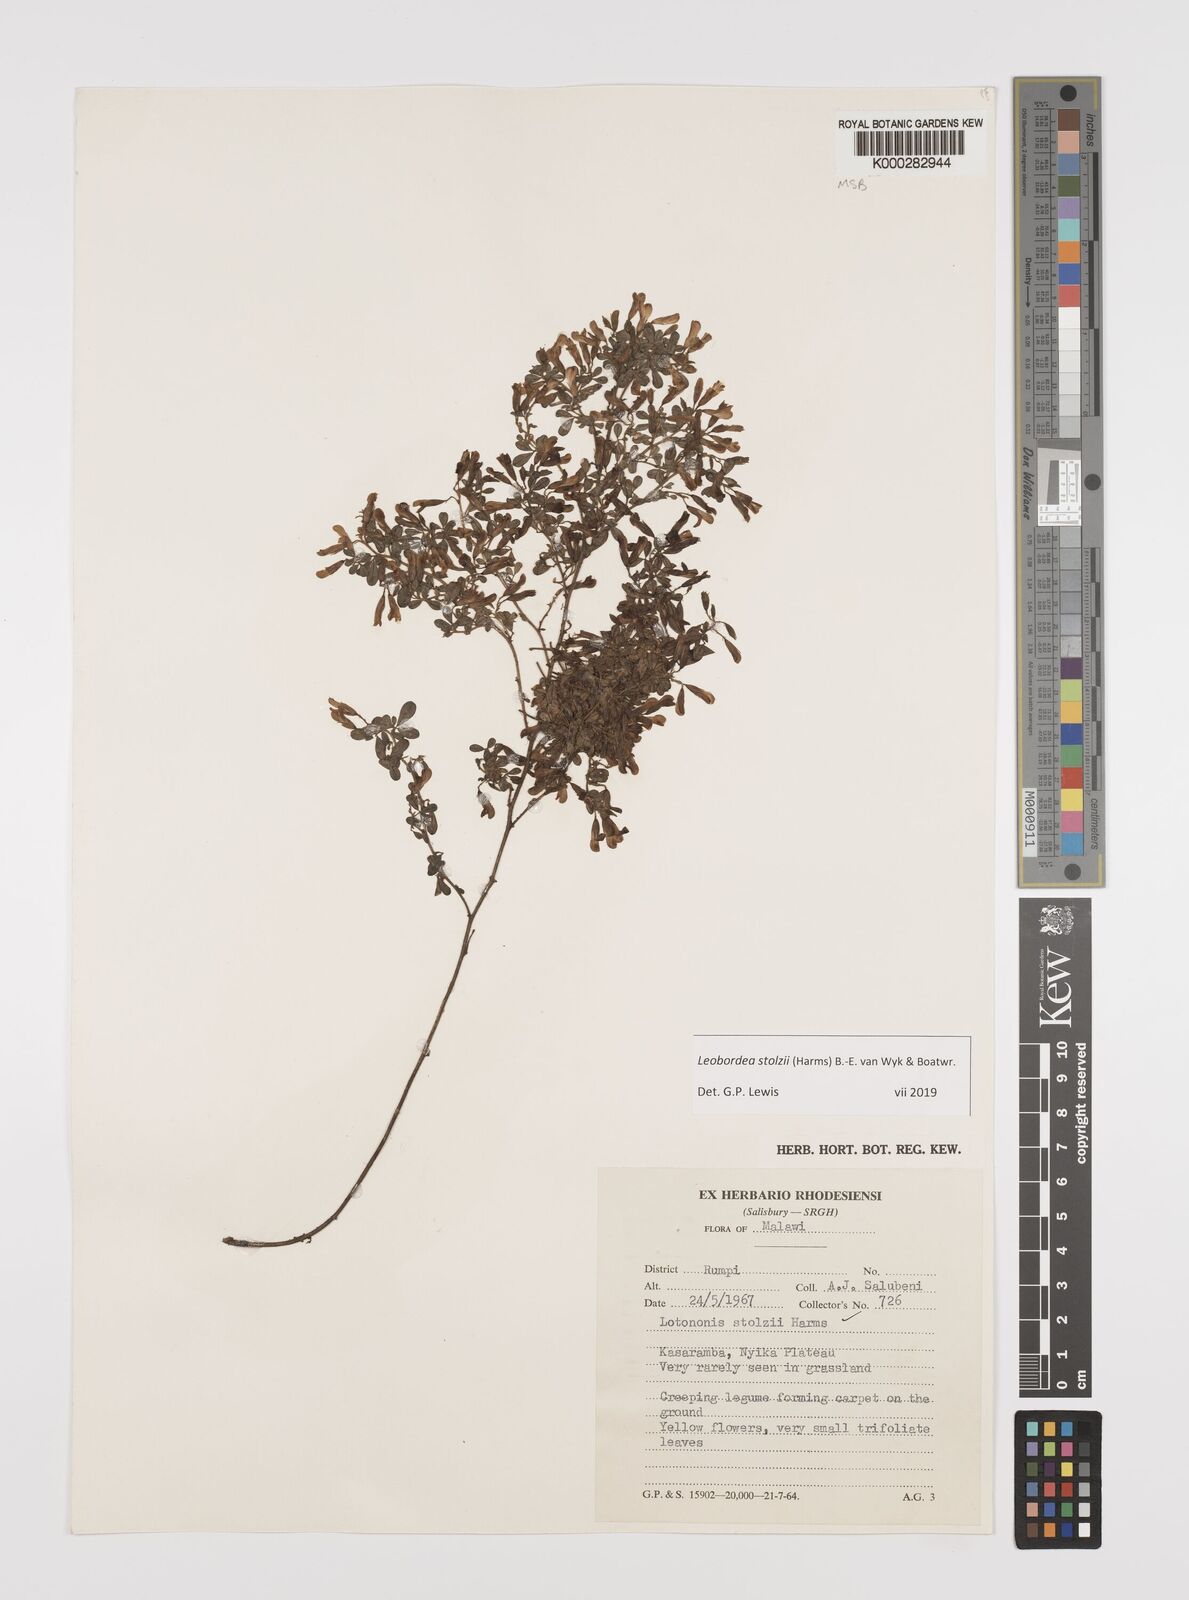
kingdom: Plantae
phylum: Tracheophyta
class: Magnoliopsida
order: Fabales
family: Fabaceae
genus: Leobordea
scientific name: Leobordea stolzii
